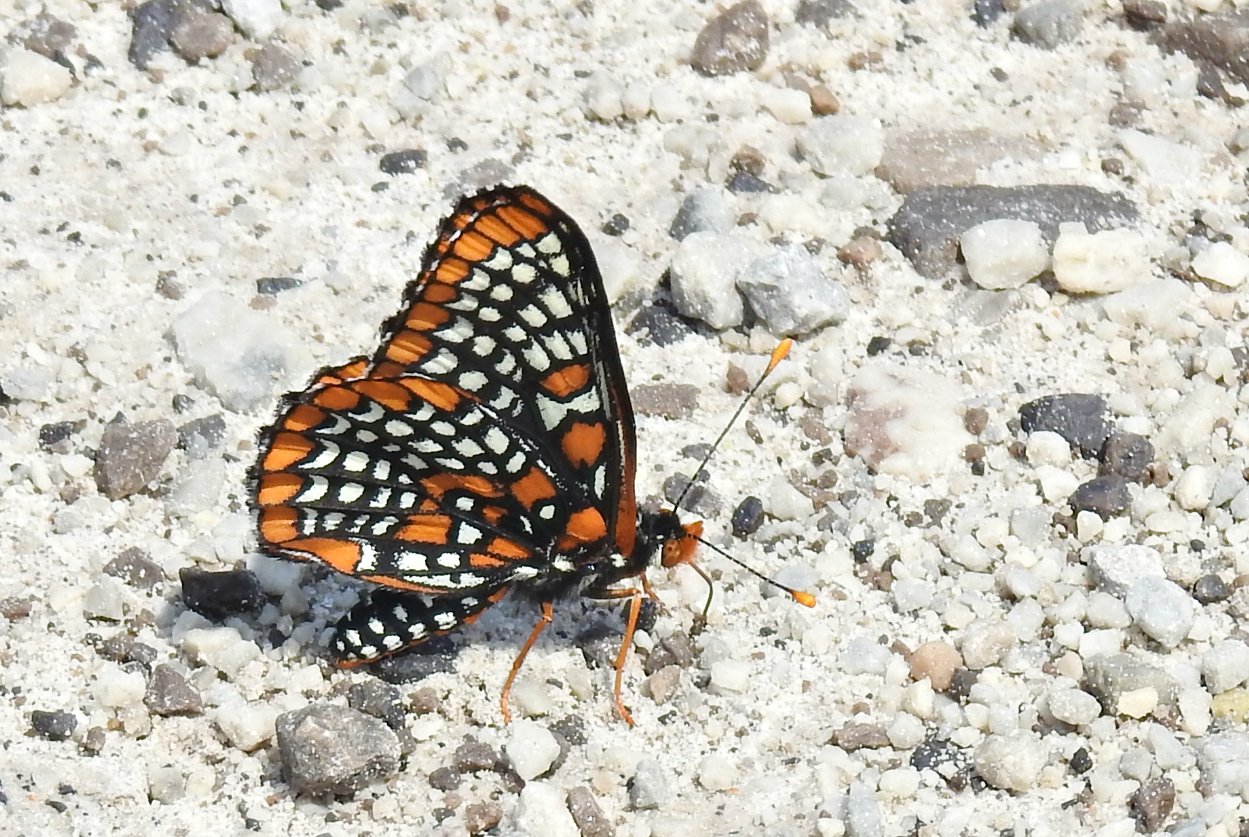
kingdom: Animalia
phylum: Arthropoda
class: Insecta
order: Lepidoptera
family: Nymphalidae
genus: Euphydryas
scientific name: Euphydryas phaeton
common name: Baltimore Checkerspot
